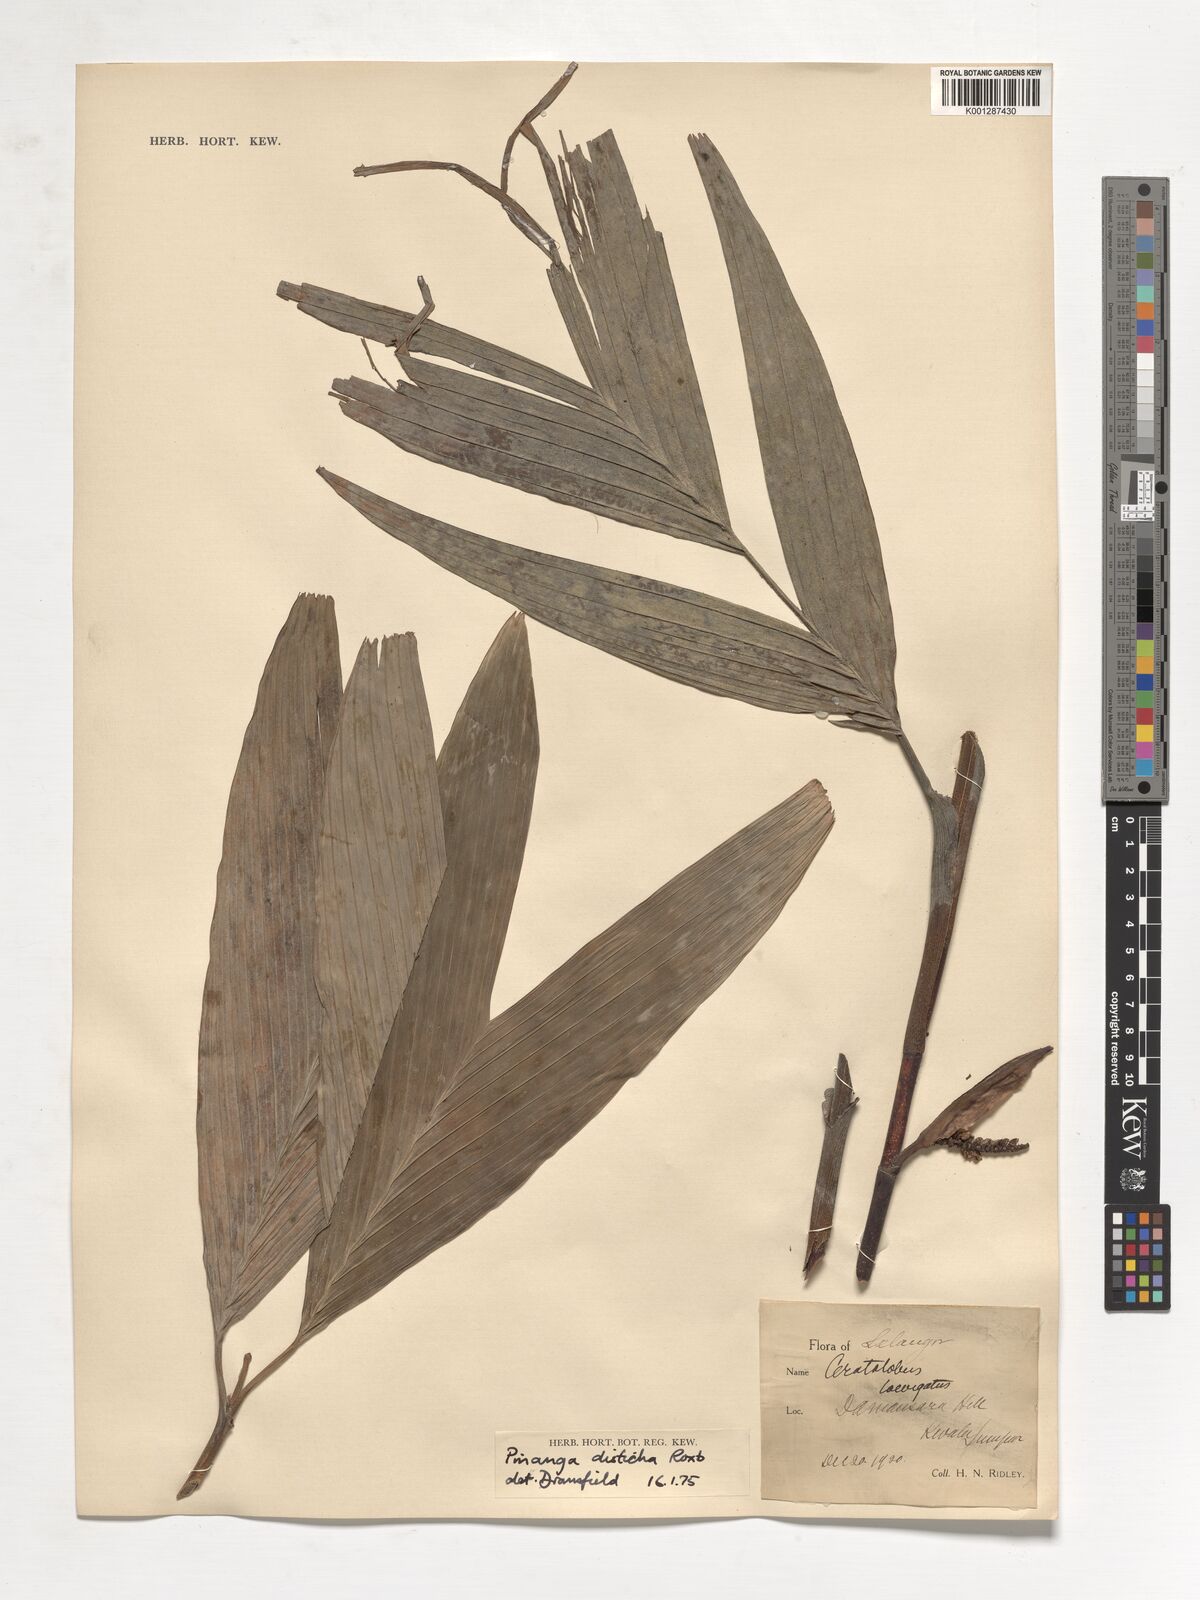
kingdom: Plantae
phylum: Tracheophyta
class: Liliopsida
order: Arecales
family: Arecaceae
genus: Pinanga
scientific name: Pinanga disticha
